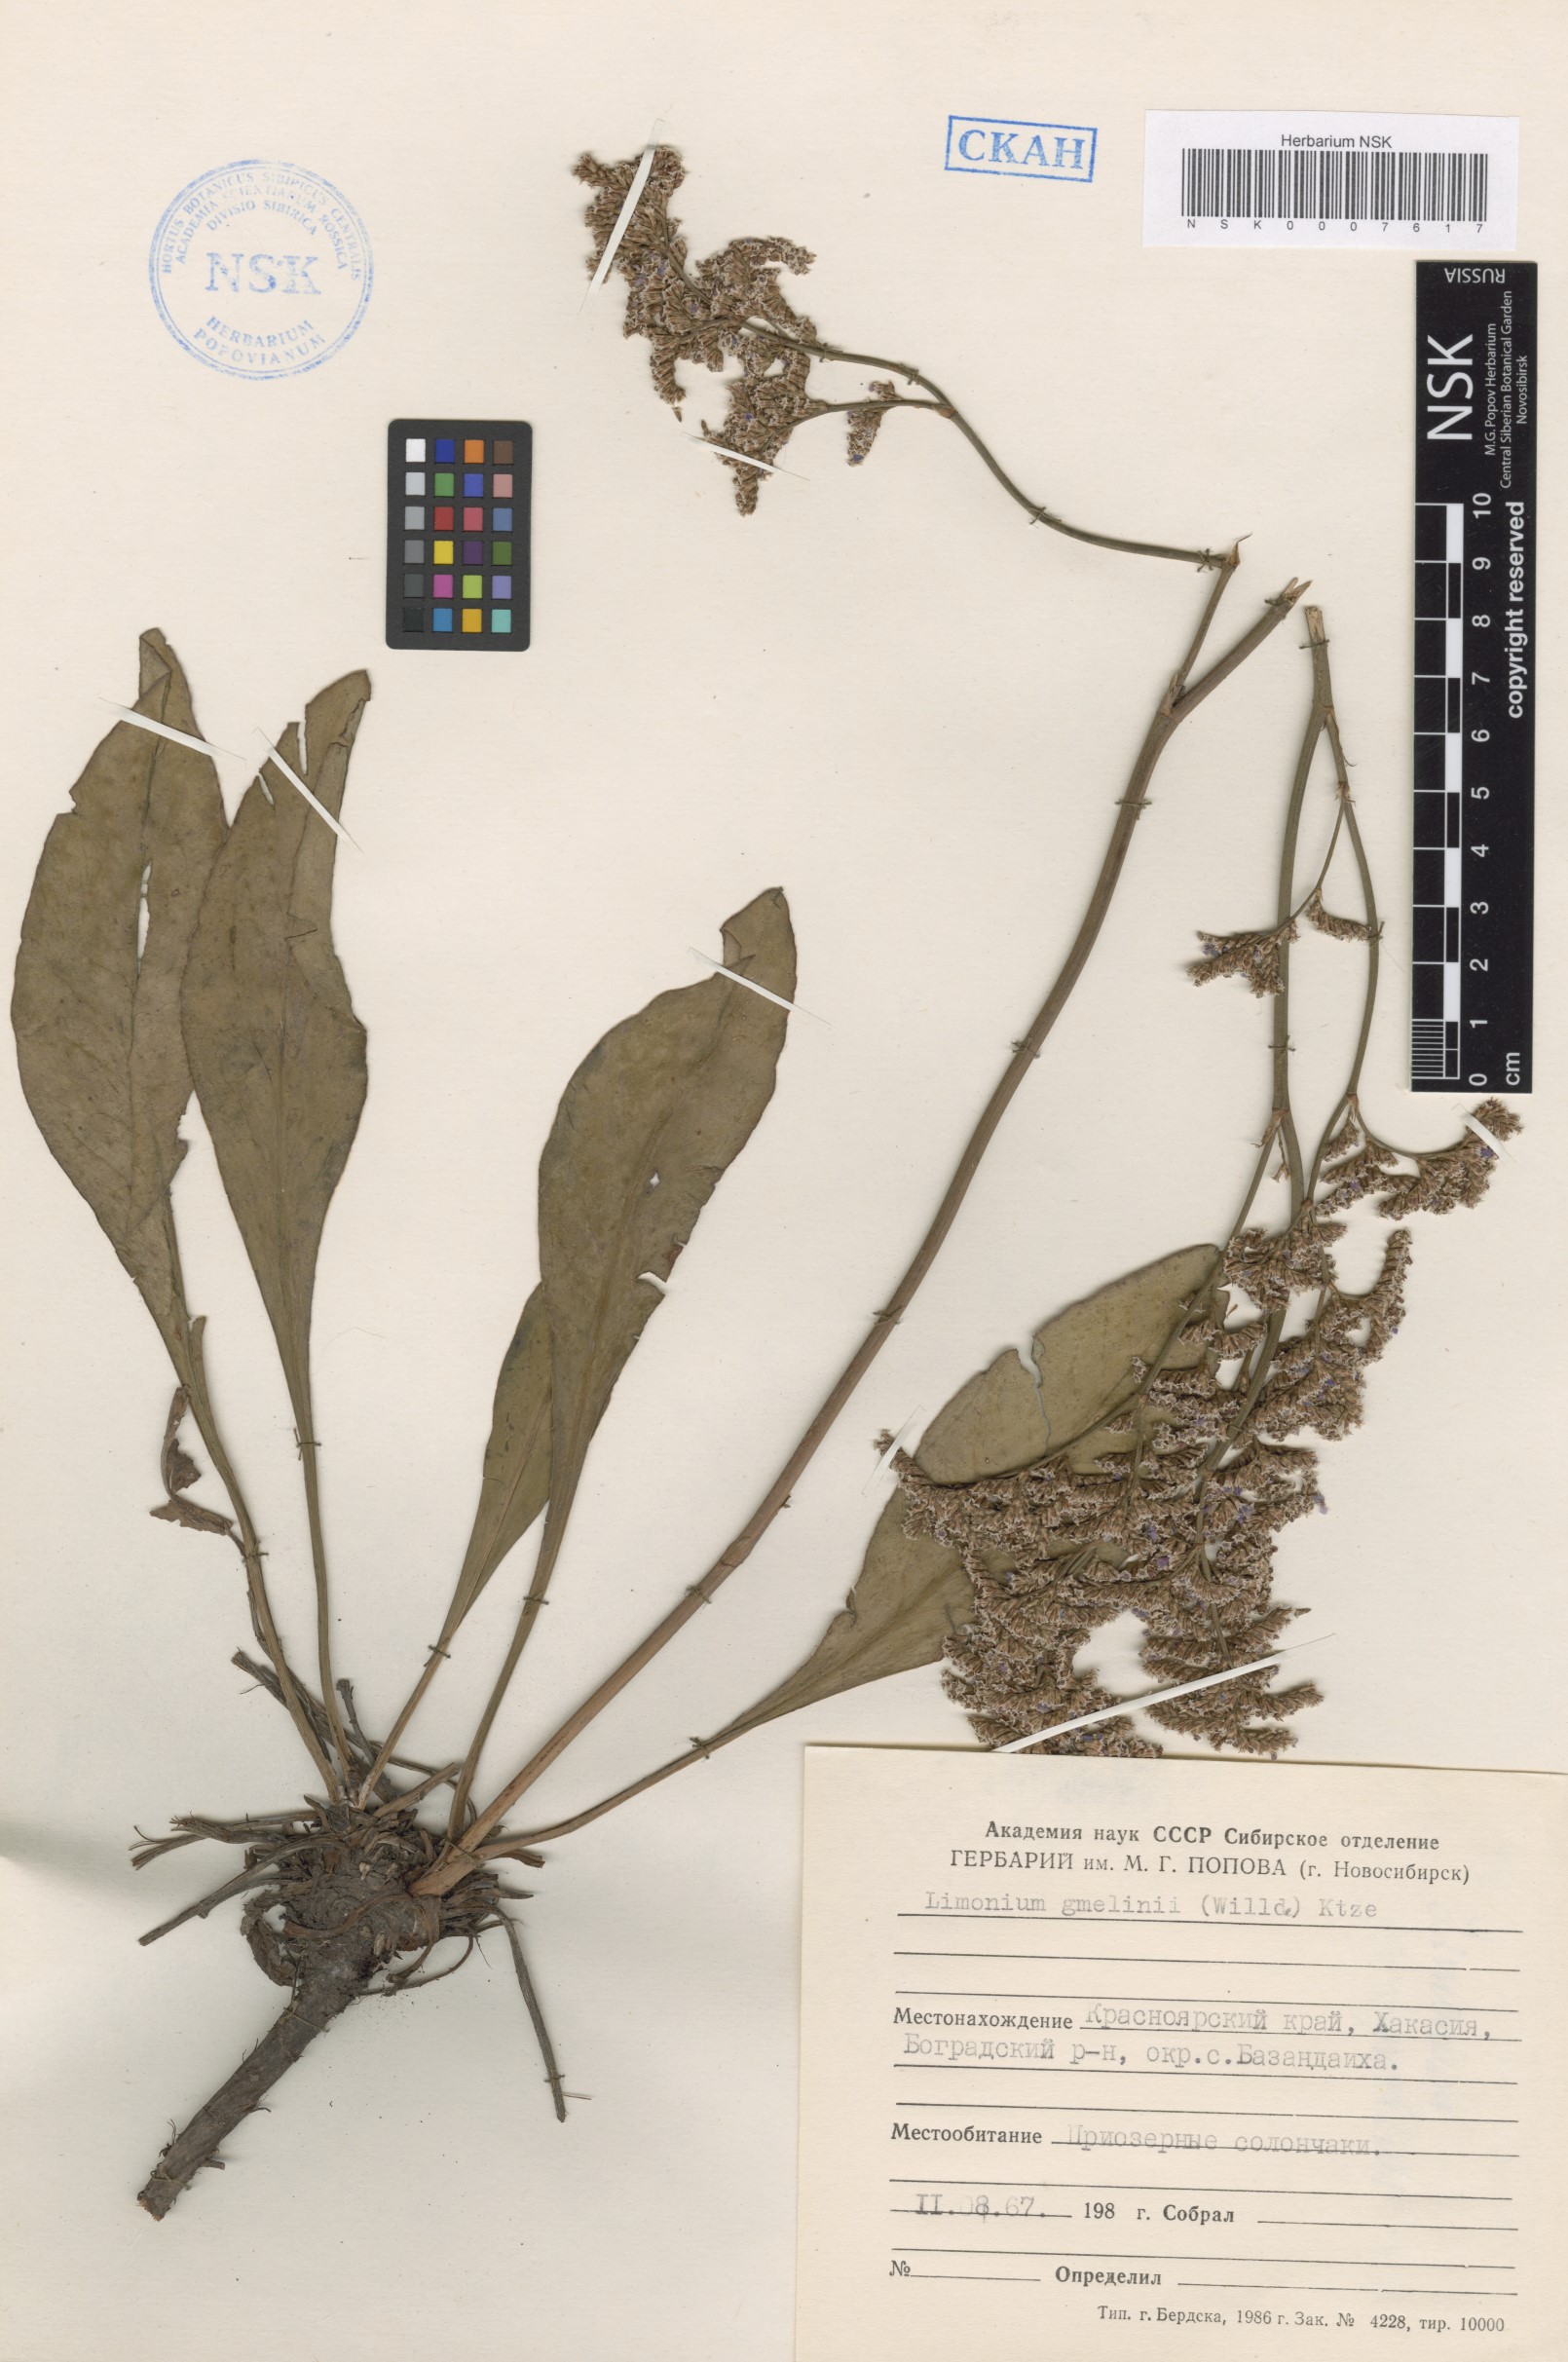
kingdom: Plantae
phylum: Tracheophyta
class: Magnoliopsida
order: Caryophyllales
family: Plumbaginaceae
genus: Limonium
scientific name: Limonium gmelini
